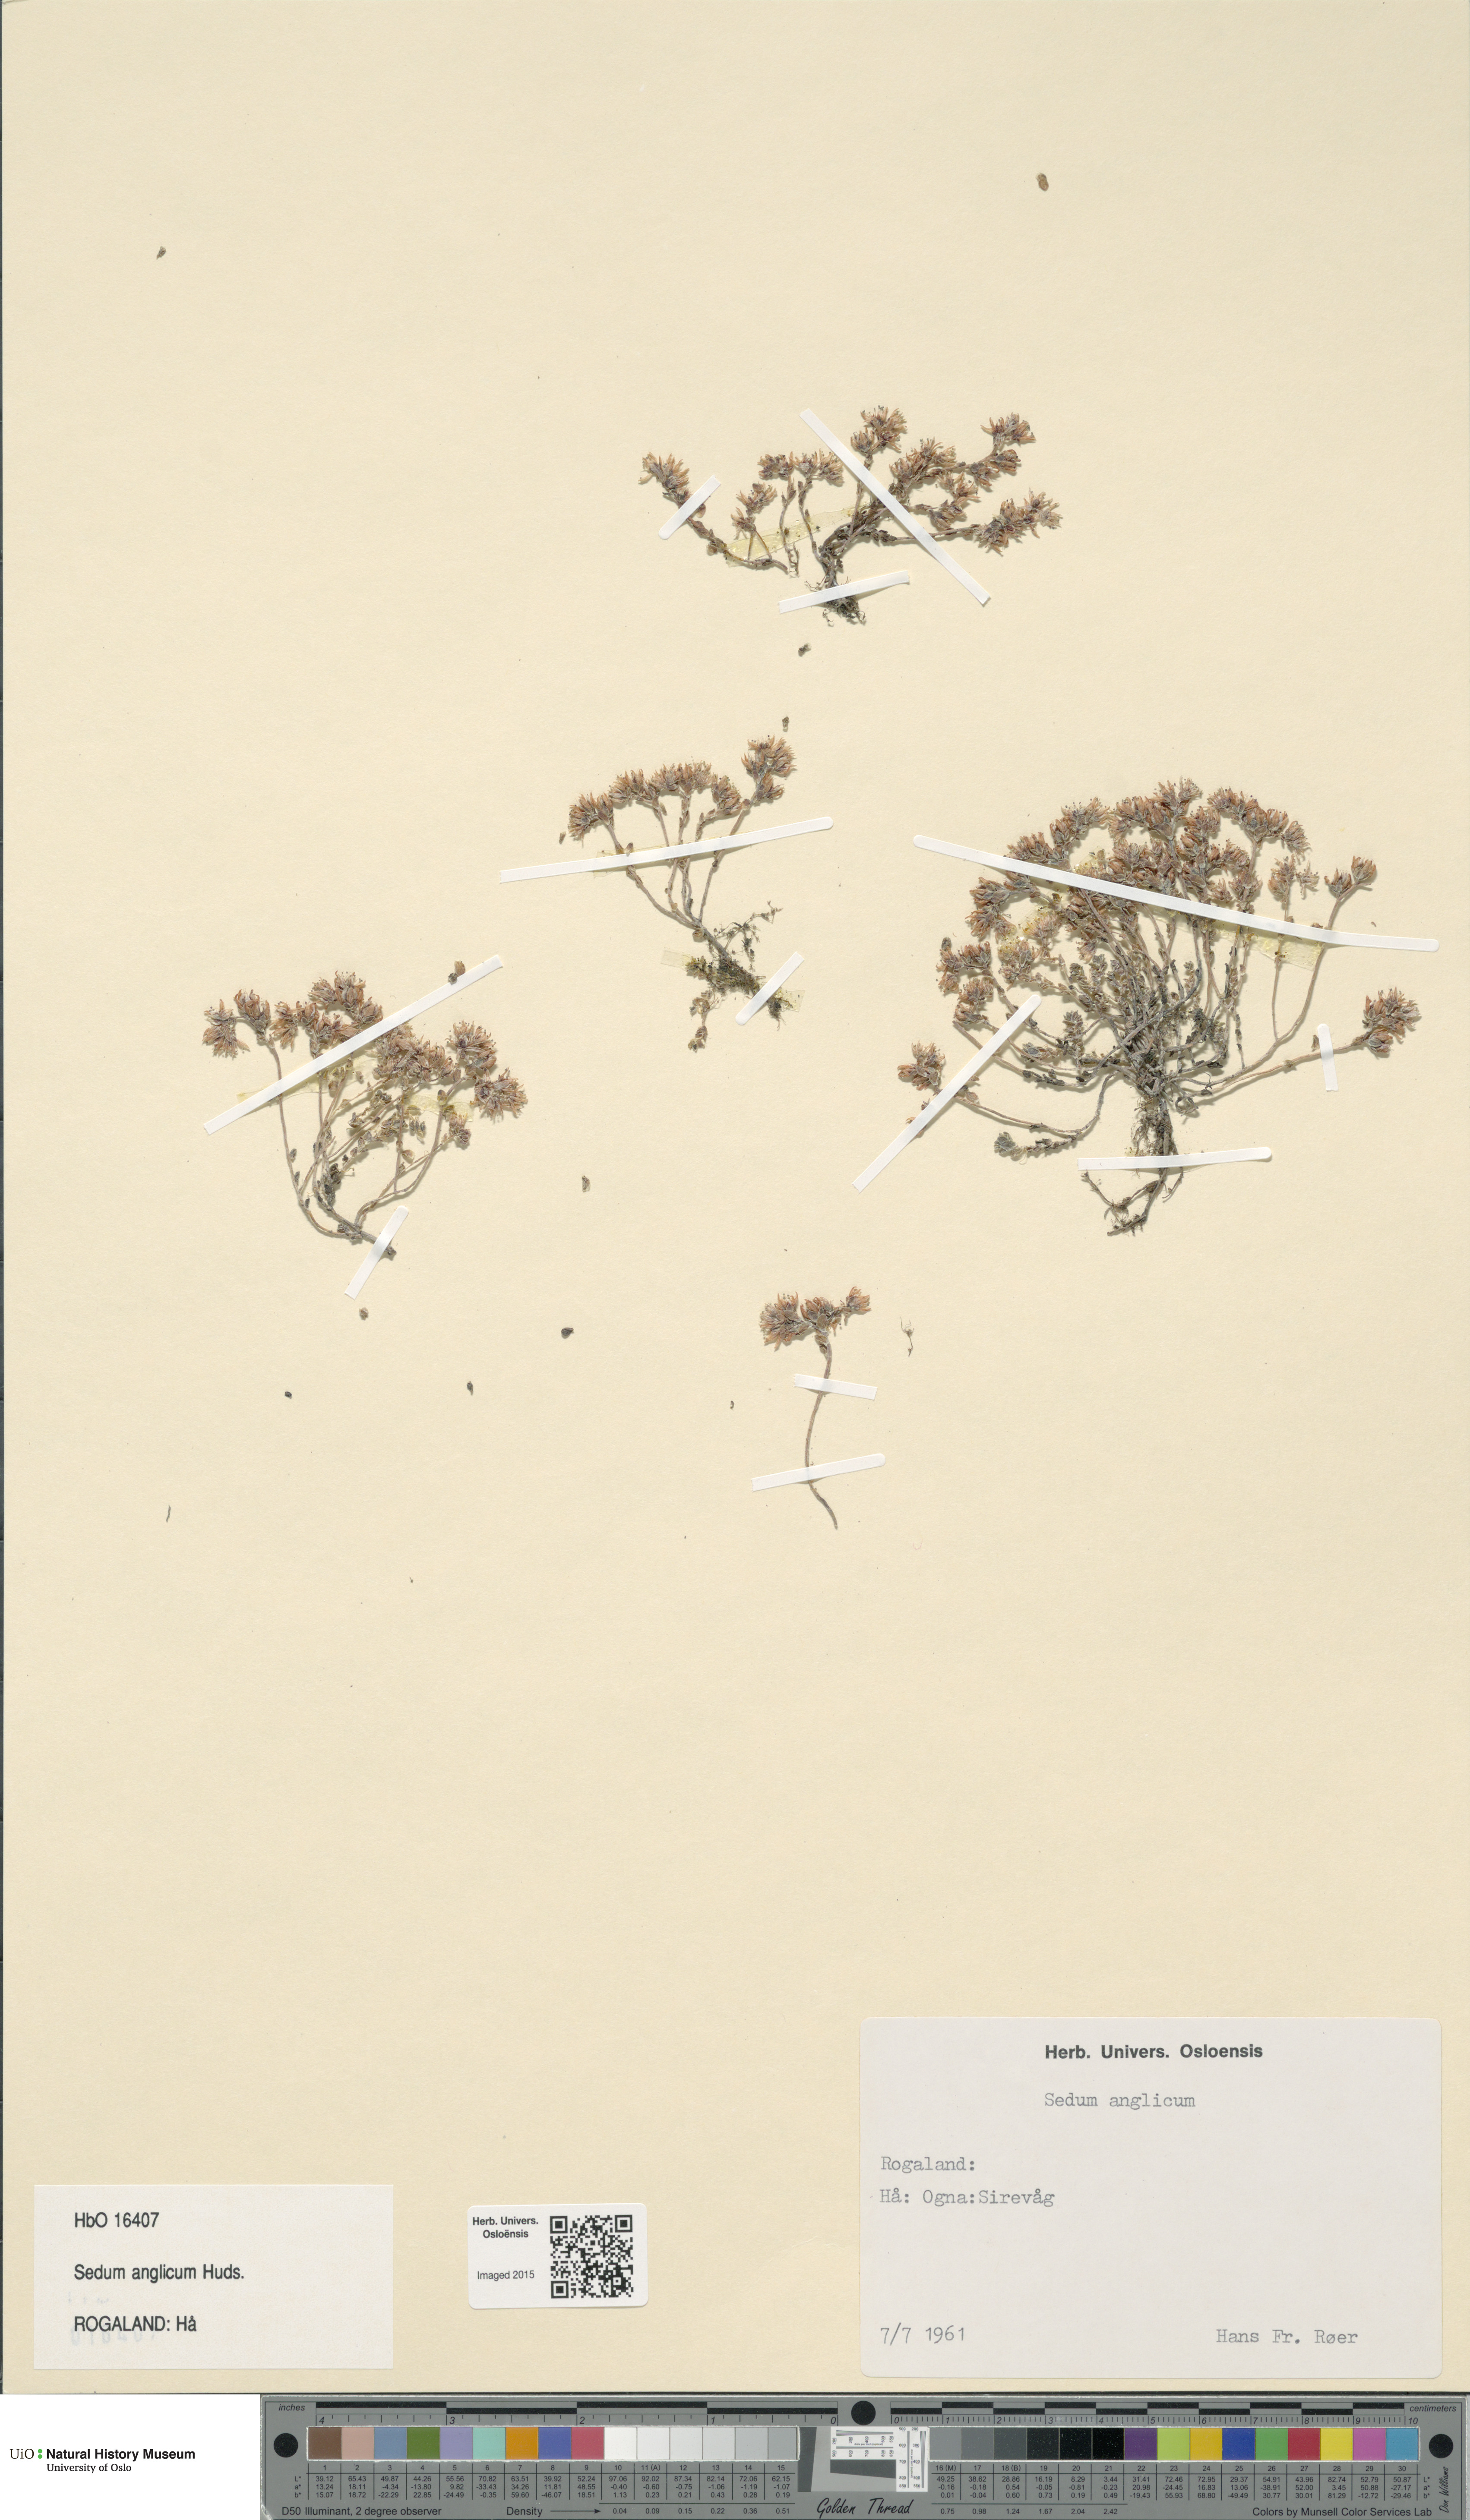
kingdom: Plantae
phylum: Tracheophyta
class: Magnoliopsida
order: Saxifragales
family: Crassulaceae
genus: Sedum
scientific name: Sedum anglicum
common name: English stonecrop
